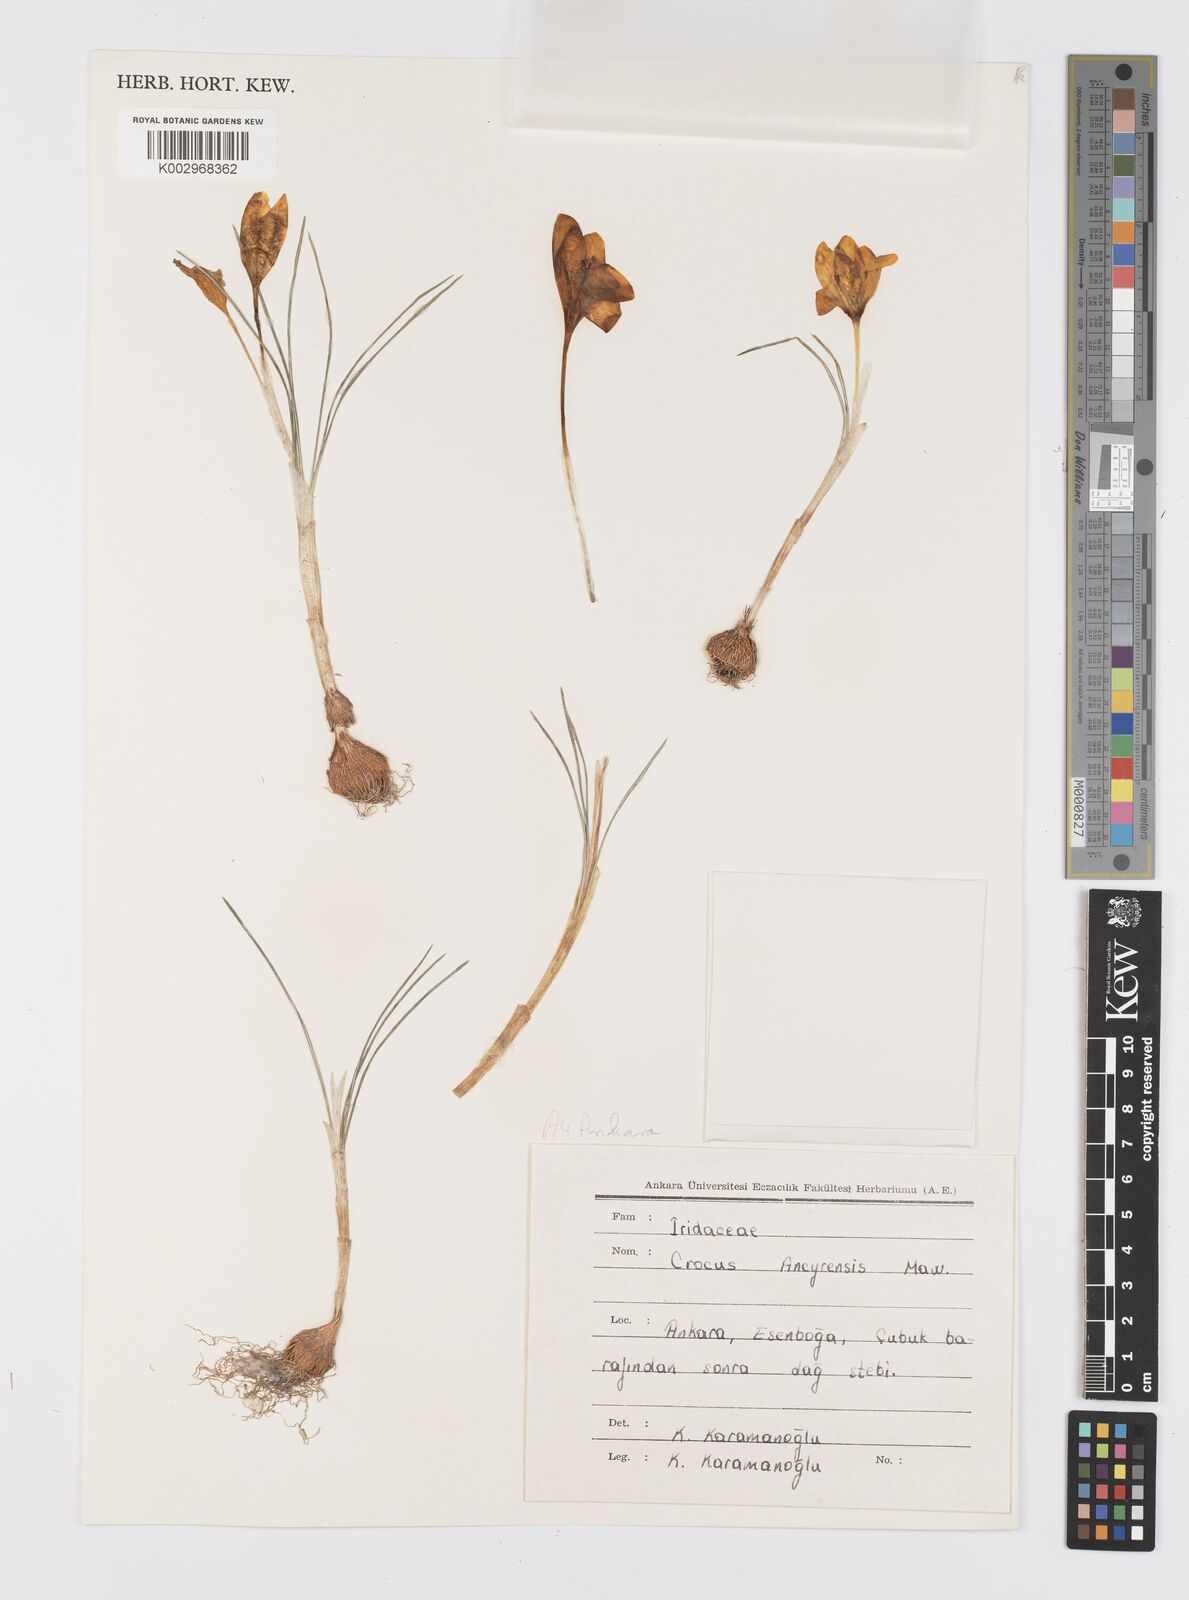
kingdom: Plantae
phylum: Tracheophyta
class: Liliopsida
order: Asparagales
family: Iridaceae
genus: Crocus
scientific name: Crocus ancyrensis
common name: Ankara crocus
